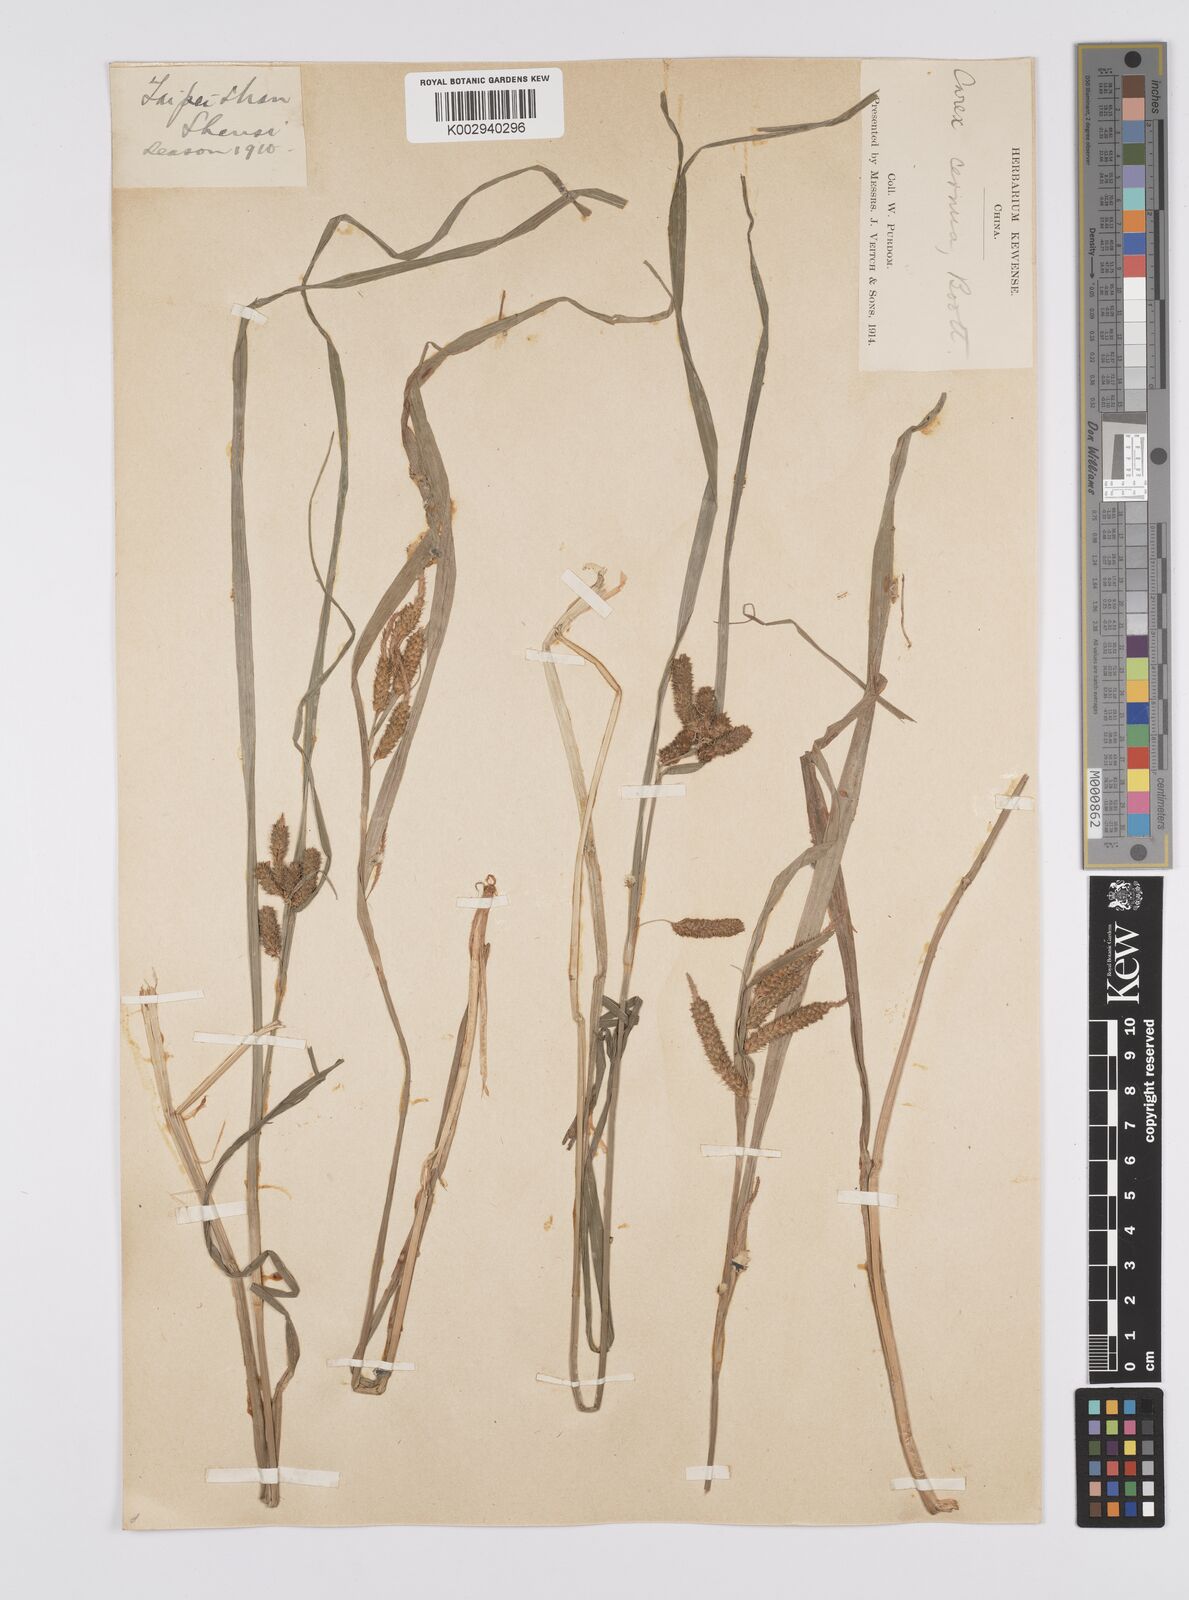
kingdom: Plantae
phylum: Tracheophyta
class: Liliopsida
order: Poales
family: Cyperaceae
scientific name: Cyperaceae
